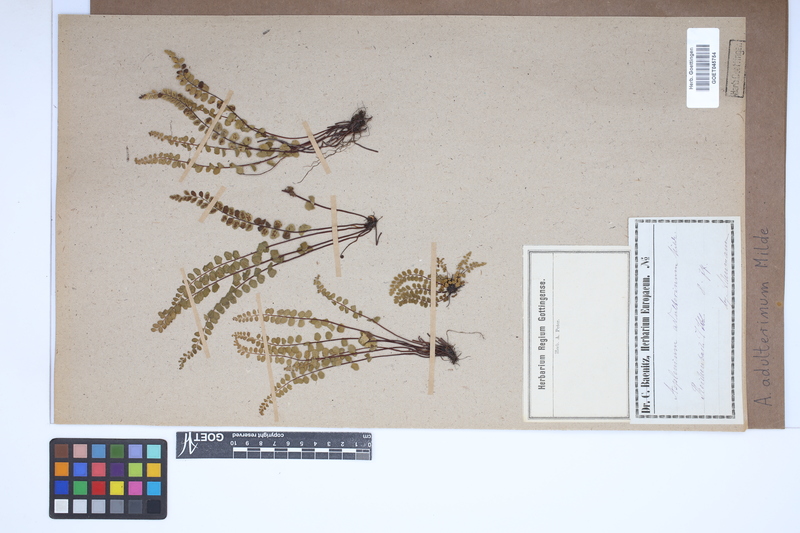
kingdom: Plantae
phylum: Tracheophyta
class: Polypodiopsida
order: Polypodiales
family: Aspleniaceae
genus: Asplenium
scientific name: Asplenium adulterinum
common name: Adulterated spleenwort
